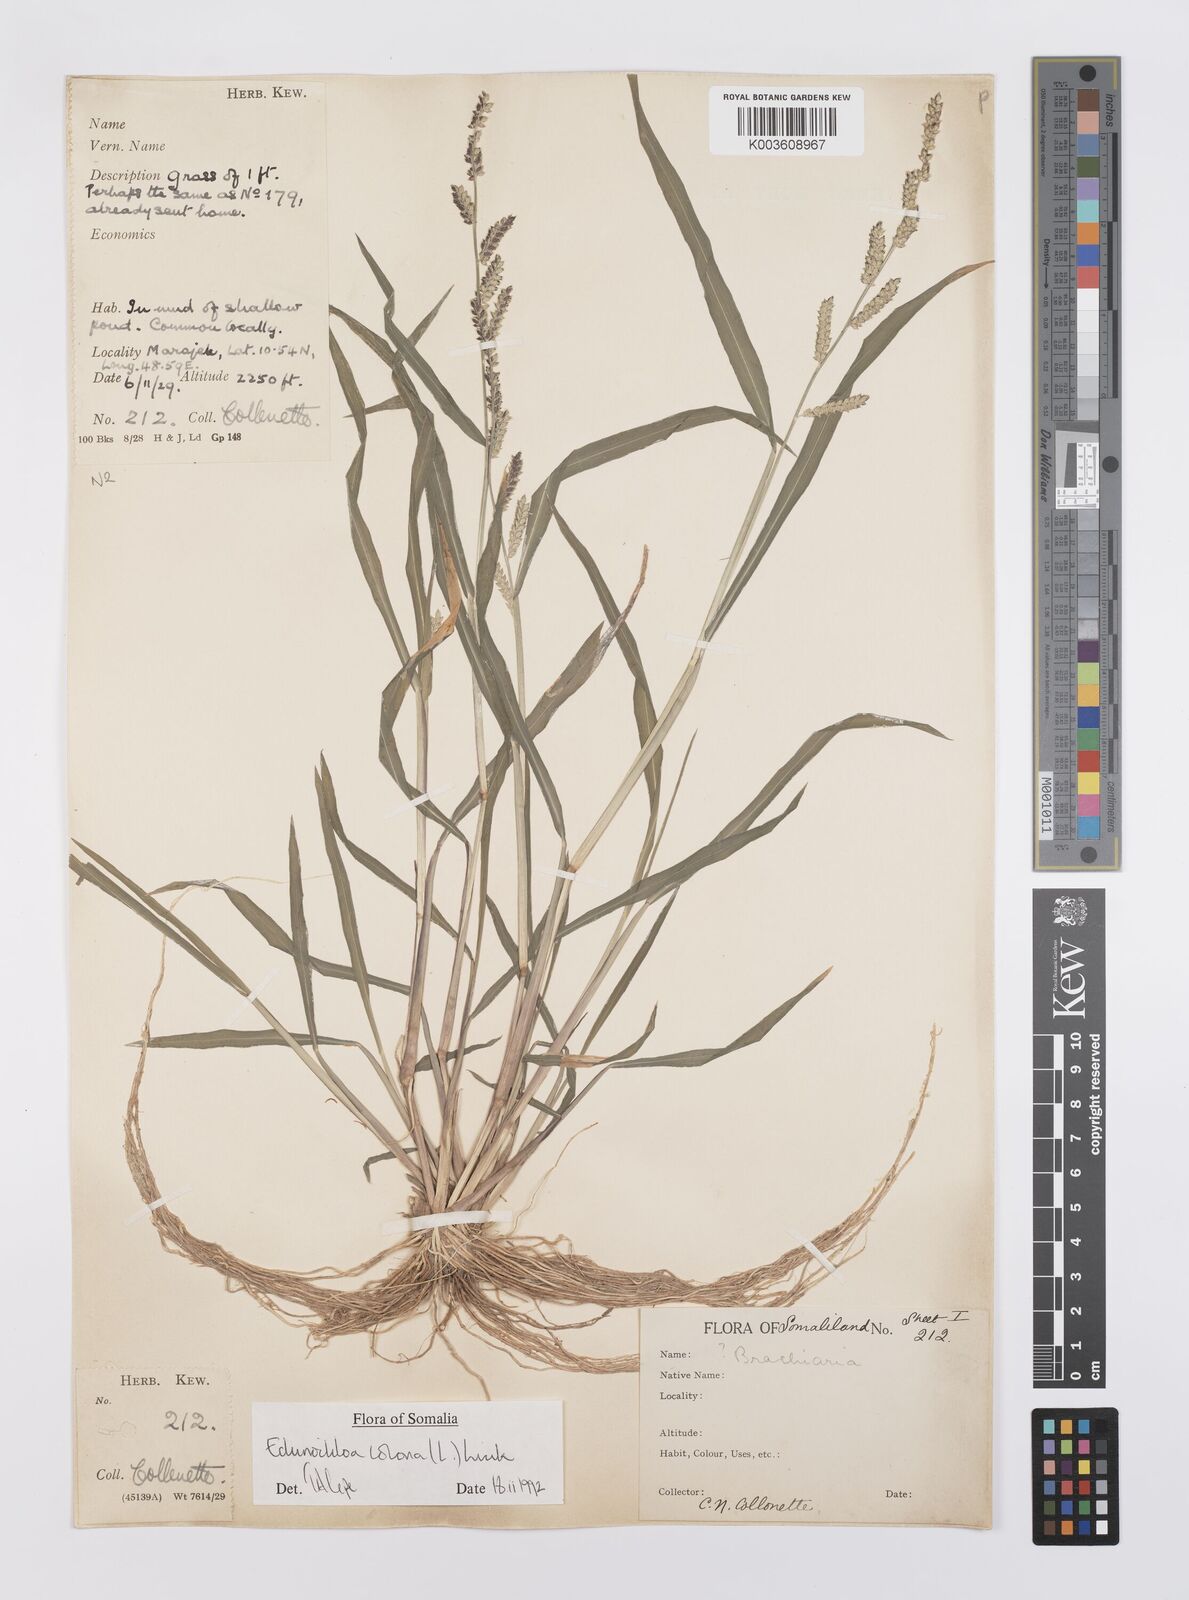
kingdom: Plantae
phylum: Tracheophyta
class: Liliopsida
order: Poales
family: Poaceae
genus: Echinochloa
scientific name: Echinochloa colonum
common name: Jungle rice
